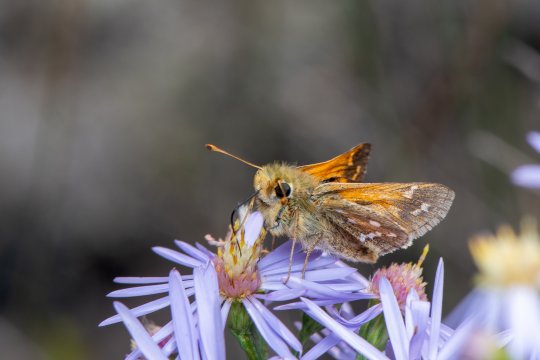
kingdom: Animalia
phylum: Arthropoda
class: Insecta
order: Lepidoptera
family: Hesperiidae
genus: Hesperia
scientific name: Hesperia comma
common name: Common Branded Skipper
